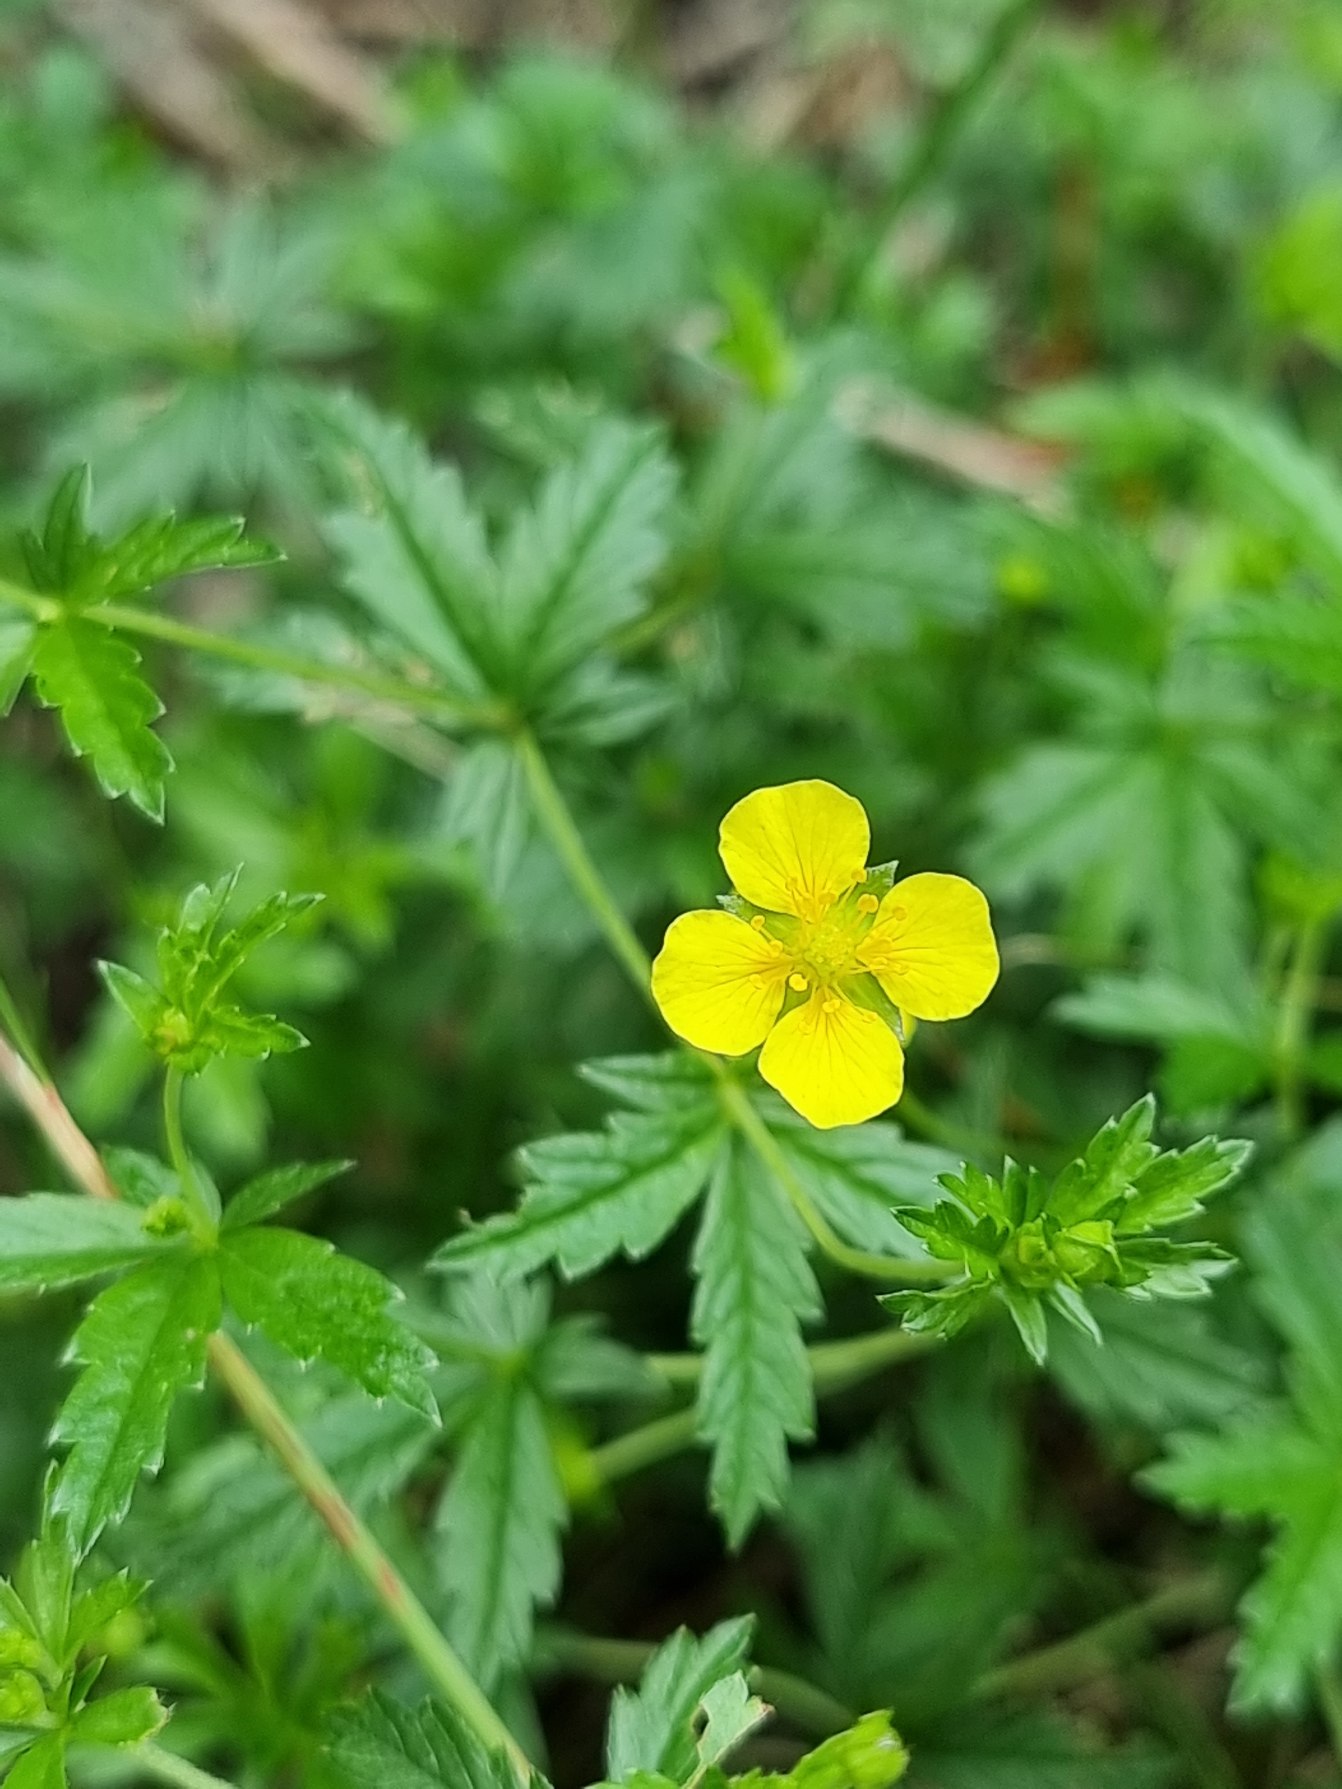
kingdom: Plantae
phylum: Tracheophyta
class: Magnoliopsida
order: Rosales
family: Rosaceae
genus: Potentilla
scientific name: Potentilla erecta
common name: Tormentil
